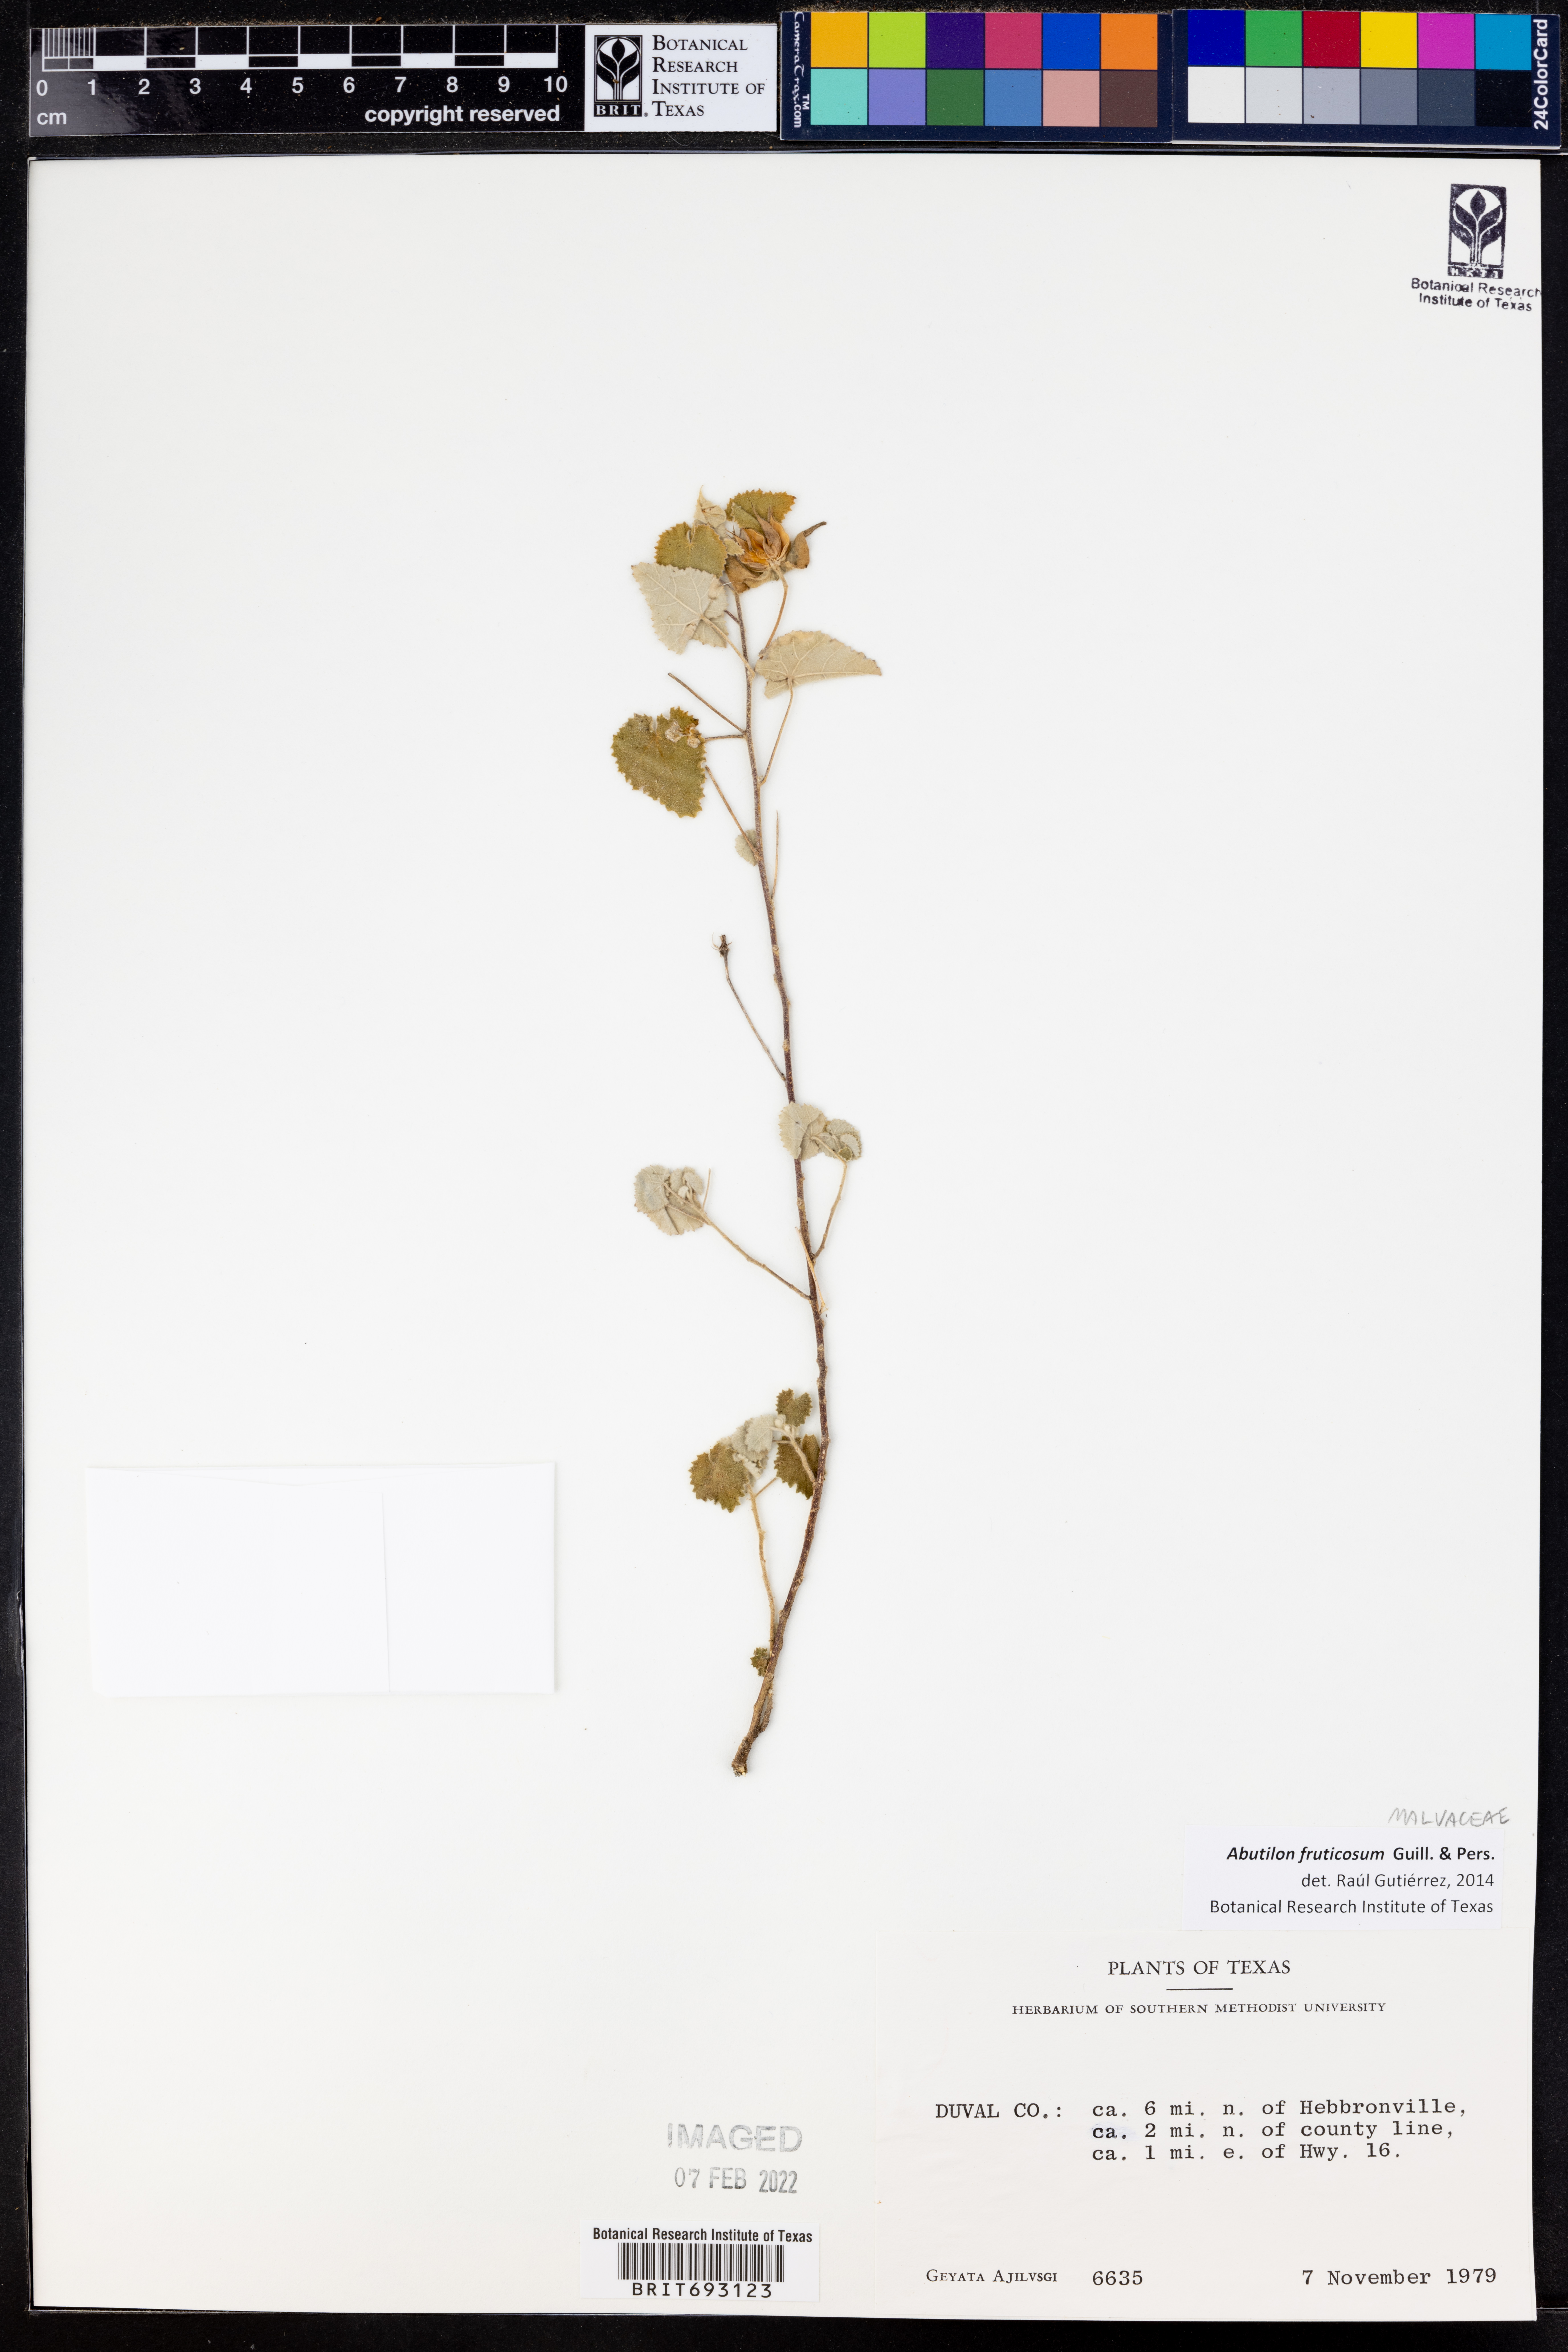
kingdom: Plantae
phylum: Tracheophyta
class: Magnoliopsida
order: Malvales
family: Malvaceae
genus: Abutilon
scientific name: Abutilon fruticosum
